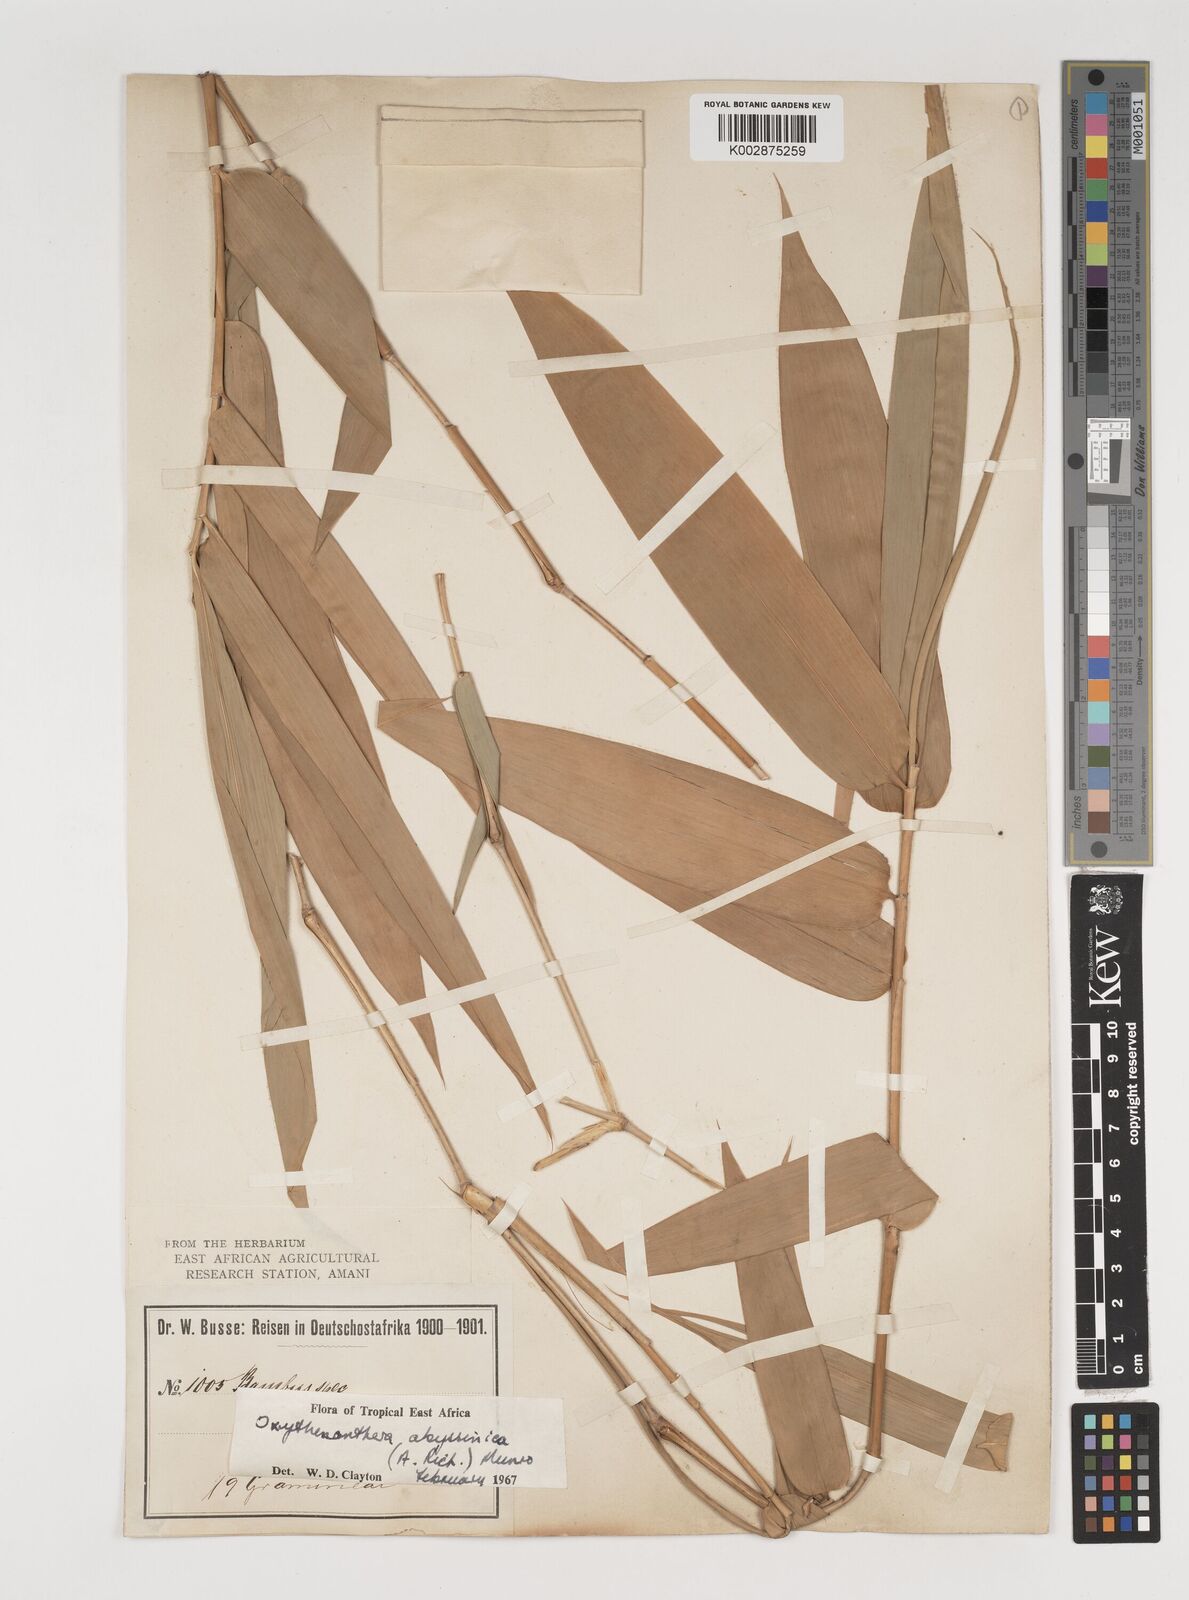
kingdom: Plantae
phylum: Tracheophyta
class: Liliopsida
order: Poales
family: Poaceae
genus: Oxytenanthera
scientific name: Oxytenanthera abyssinica
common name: Wine bamboo
